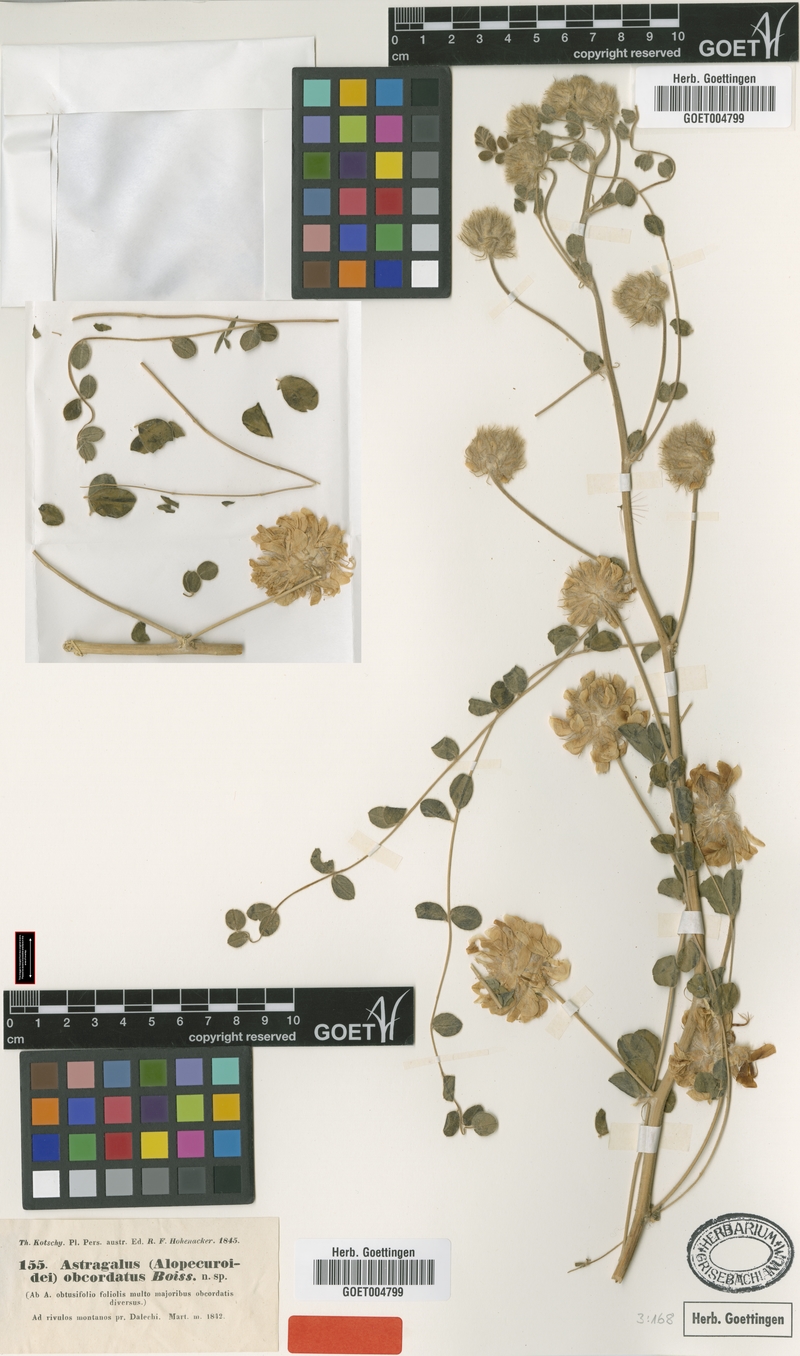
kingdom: Plantae
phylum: Tracheophyta
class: Magnoliopsida
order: Fabales
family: Fabaceae
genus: Astragalus
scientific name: Astragalus obtusifolius
